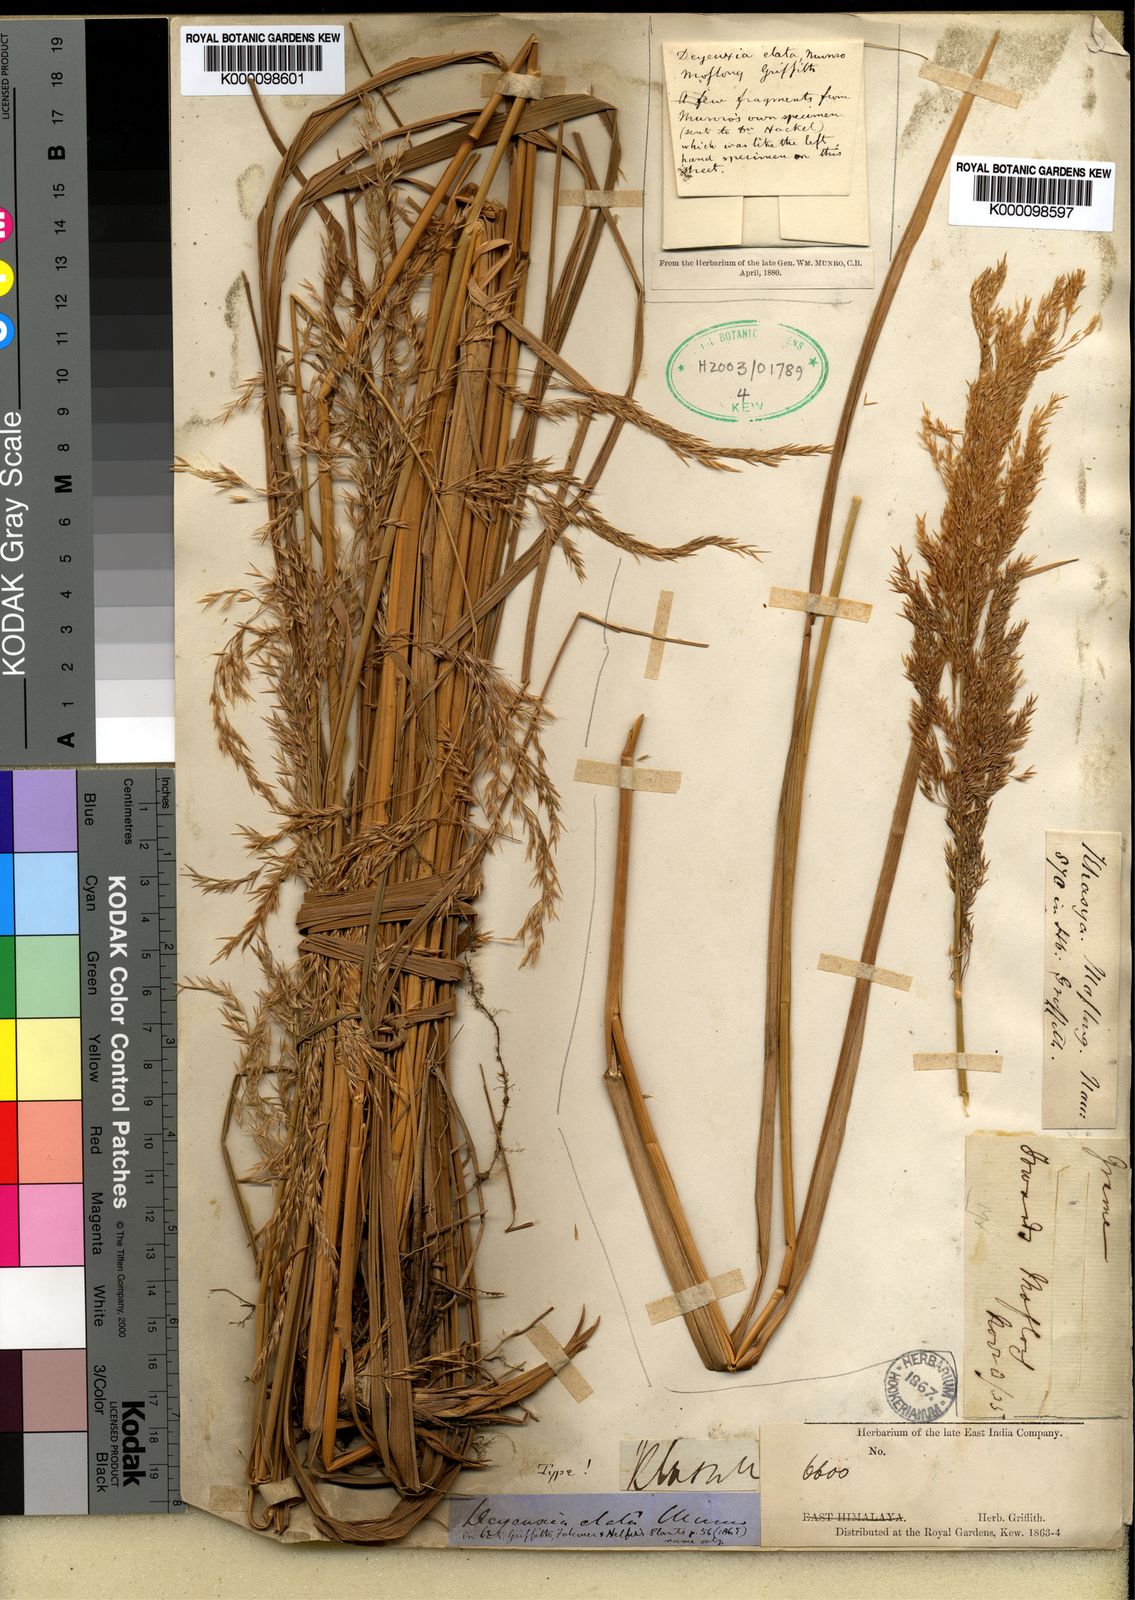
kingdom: Plantae
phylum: Tracheophyta
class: Liliopsida
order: Poales
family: Poaceae
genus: Calamagrostis
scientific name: Calamagrostis elatior
